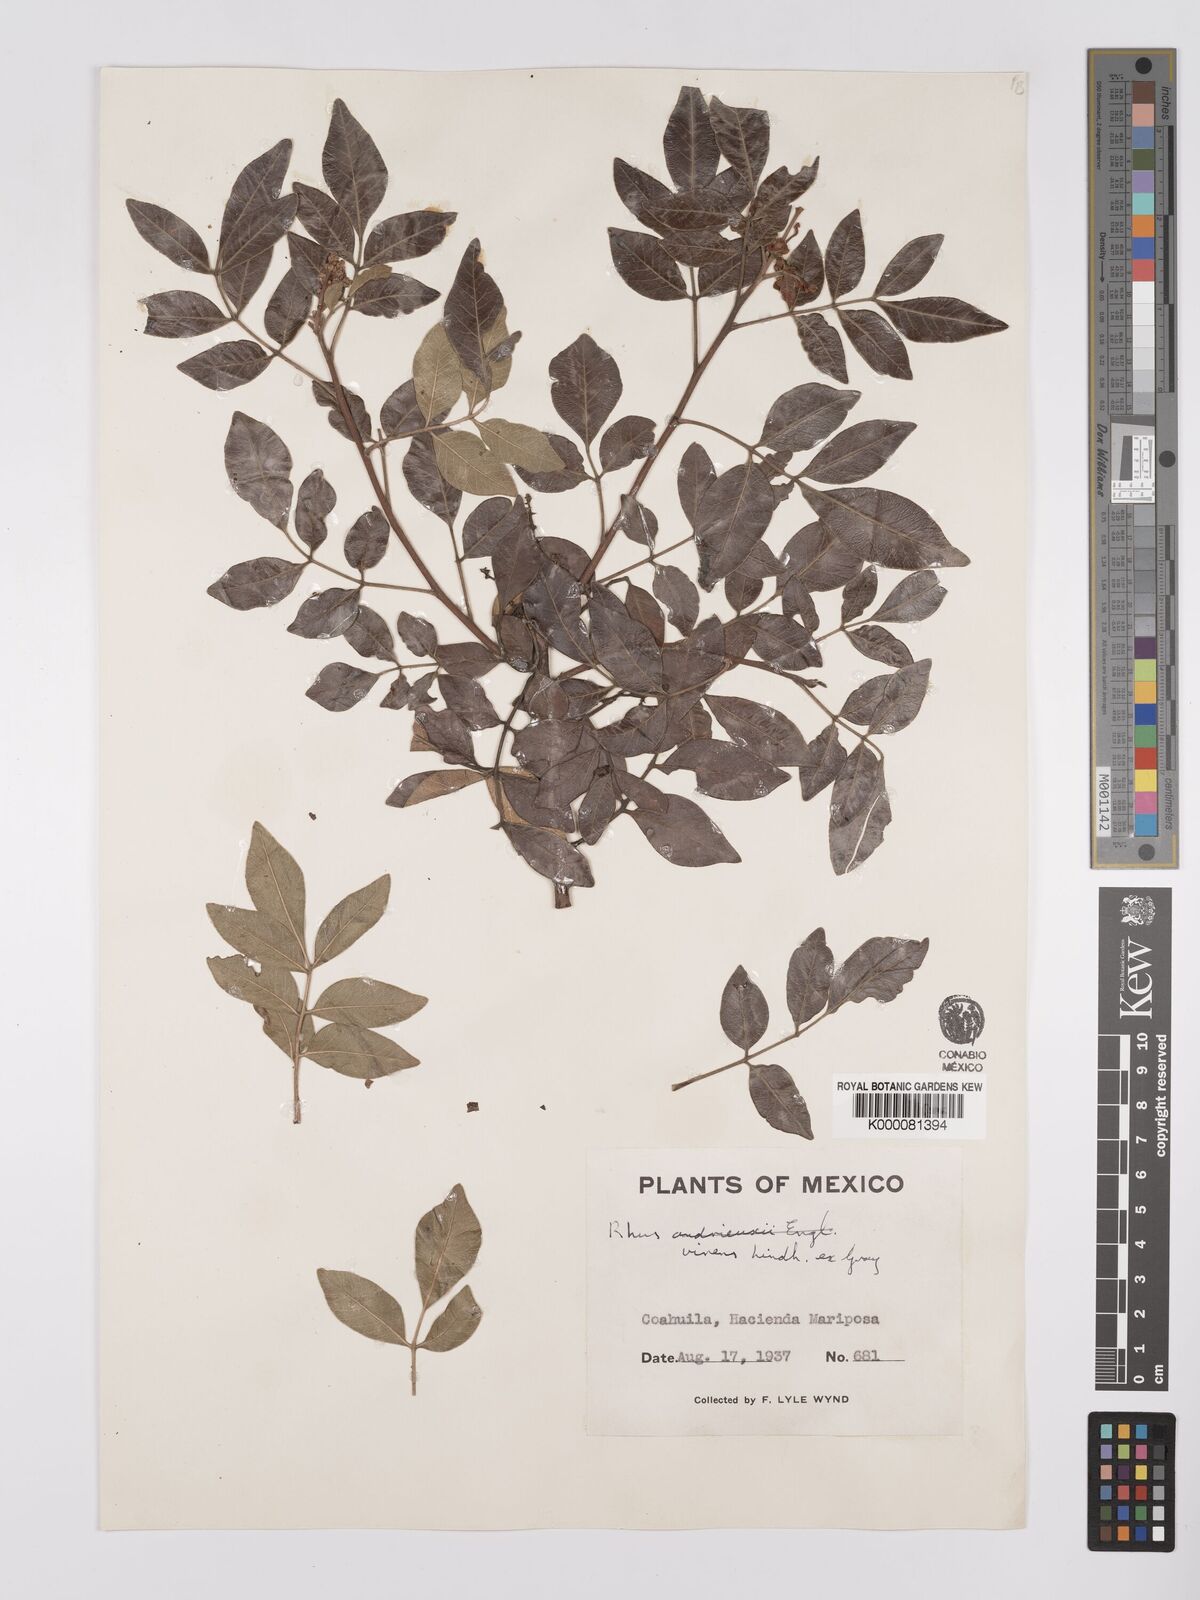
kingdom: Plantae
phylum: Tracheophyta
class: Magnoliopsida
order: Sapindales
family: Anacardiaceae
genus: Rhus
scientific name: Rhus virens
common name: Evergreen sumac
